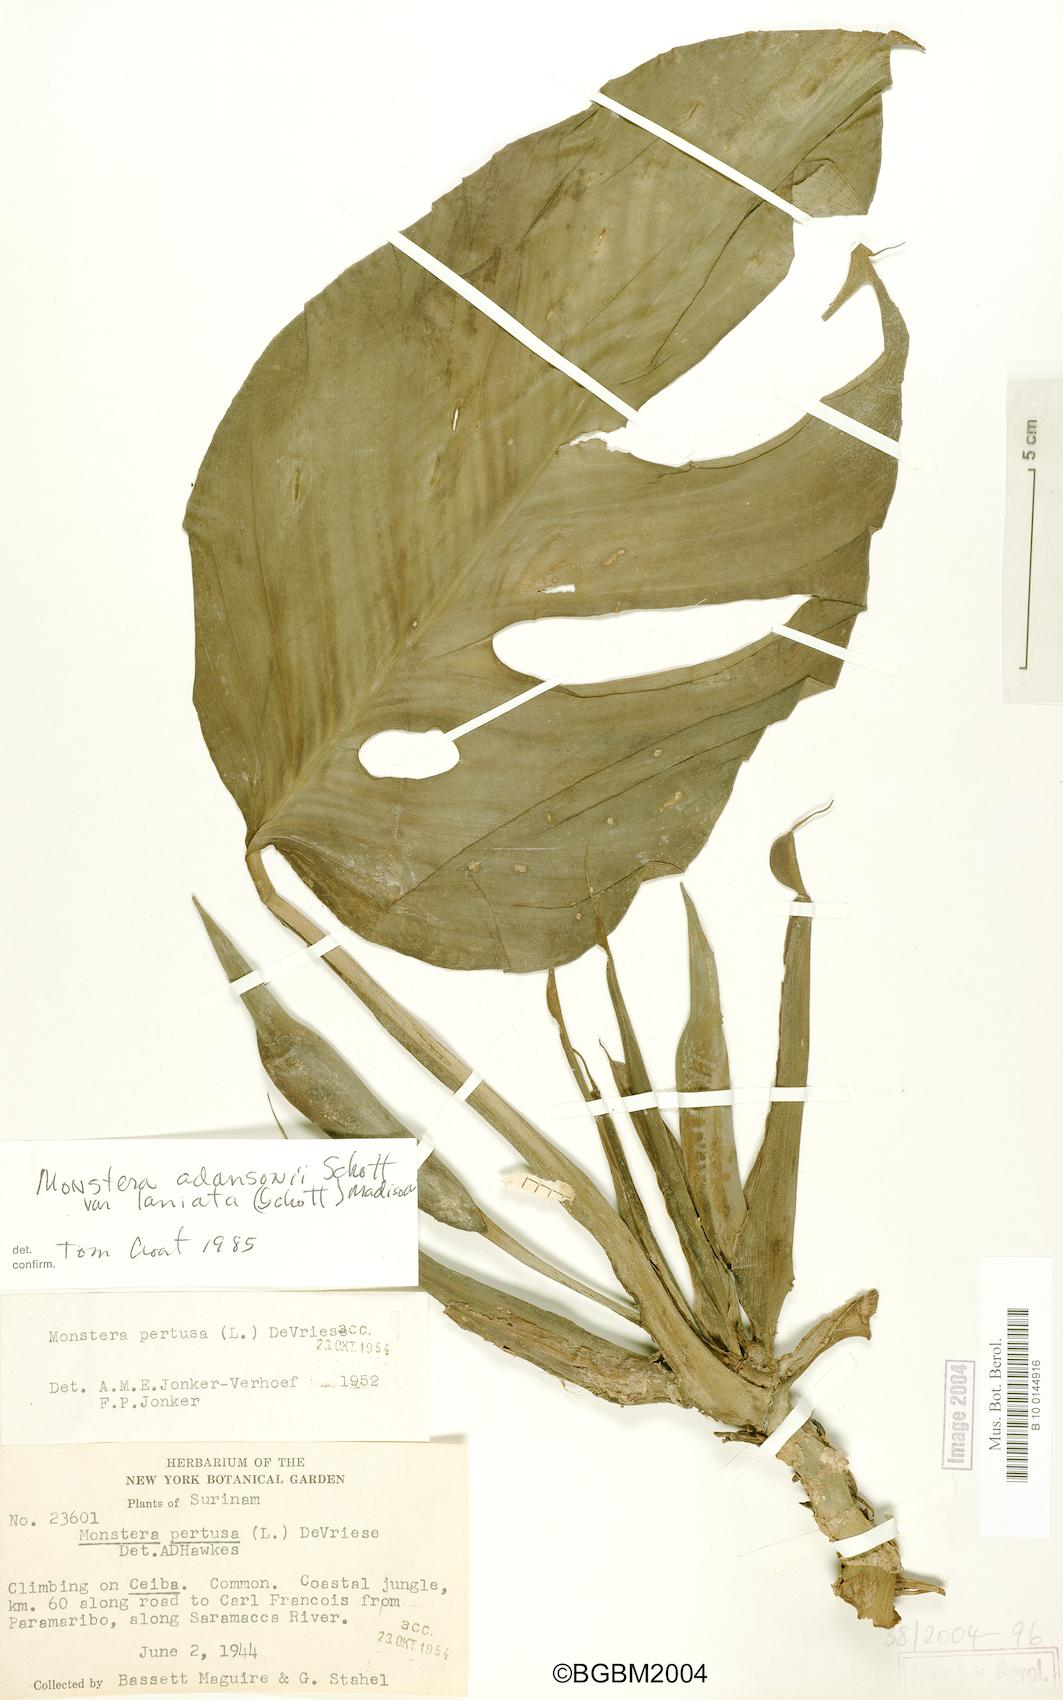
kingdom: Plantae
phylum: Tracheophyta
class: Liliopsida
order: Alismatales
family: Araceae
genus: Monstera
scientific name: Monstera adansonii
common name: Tarovine
